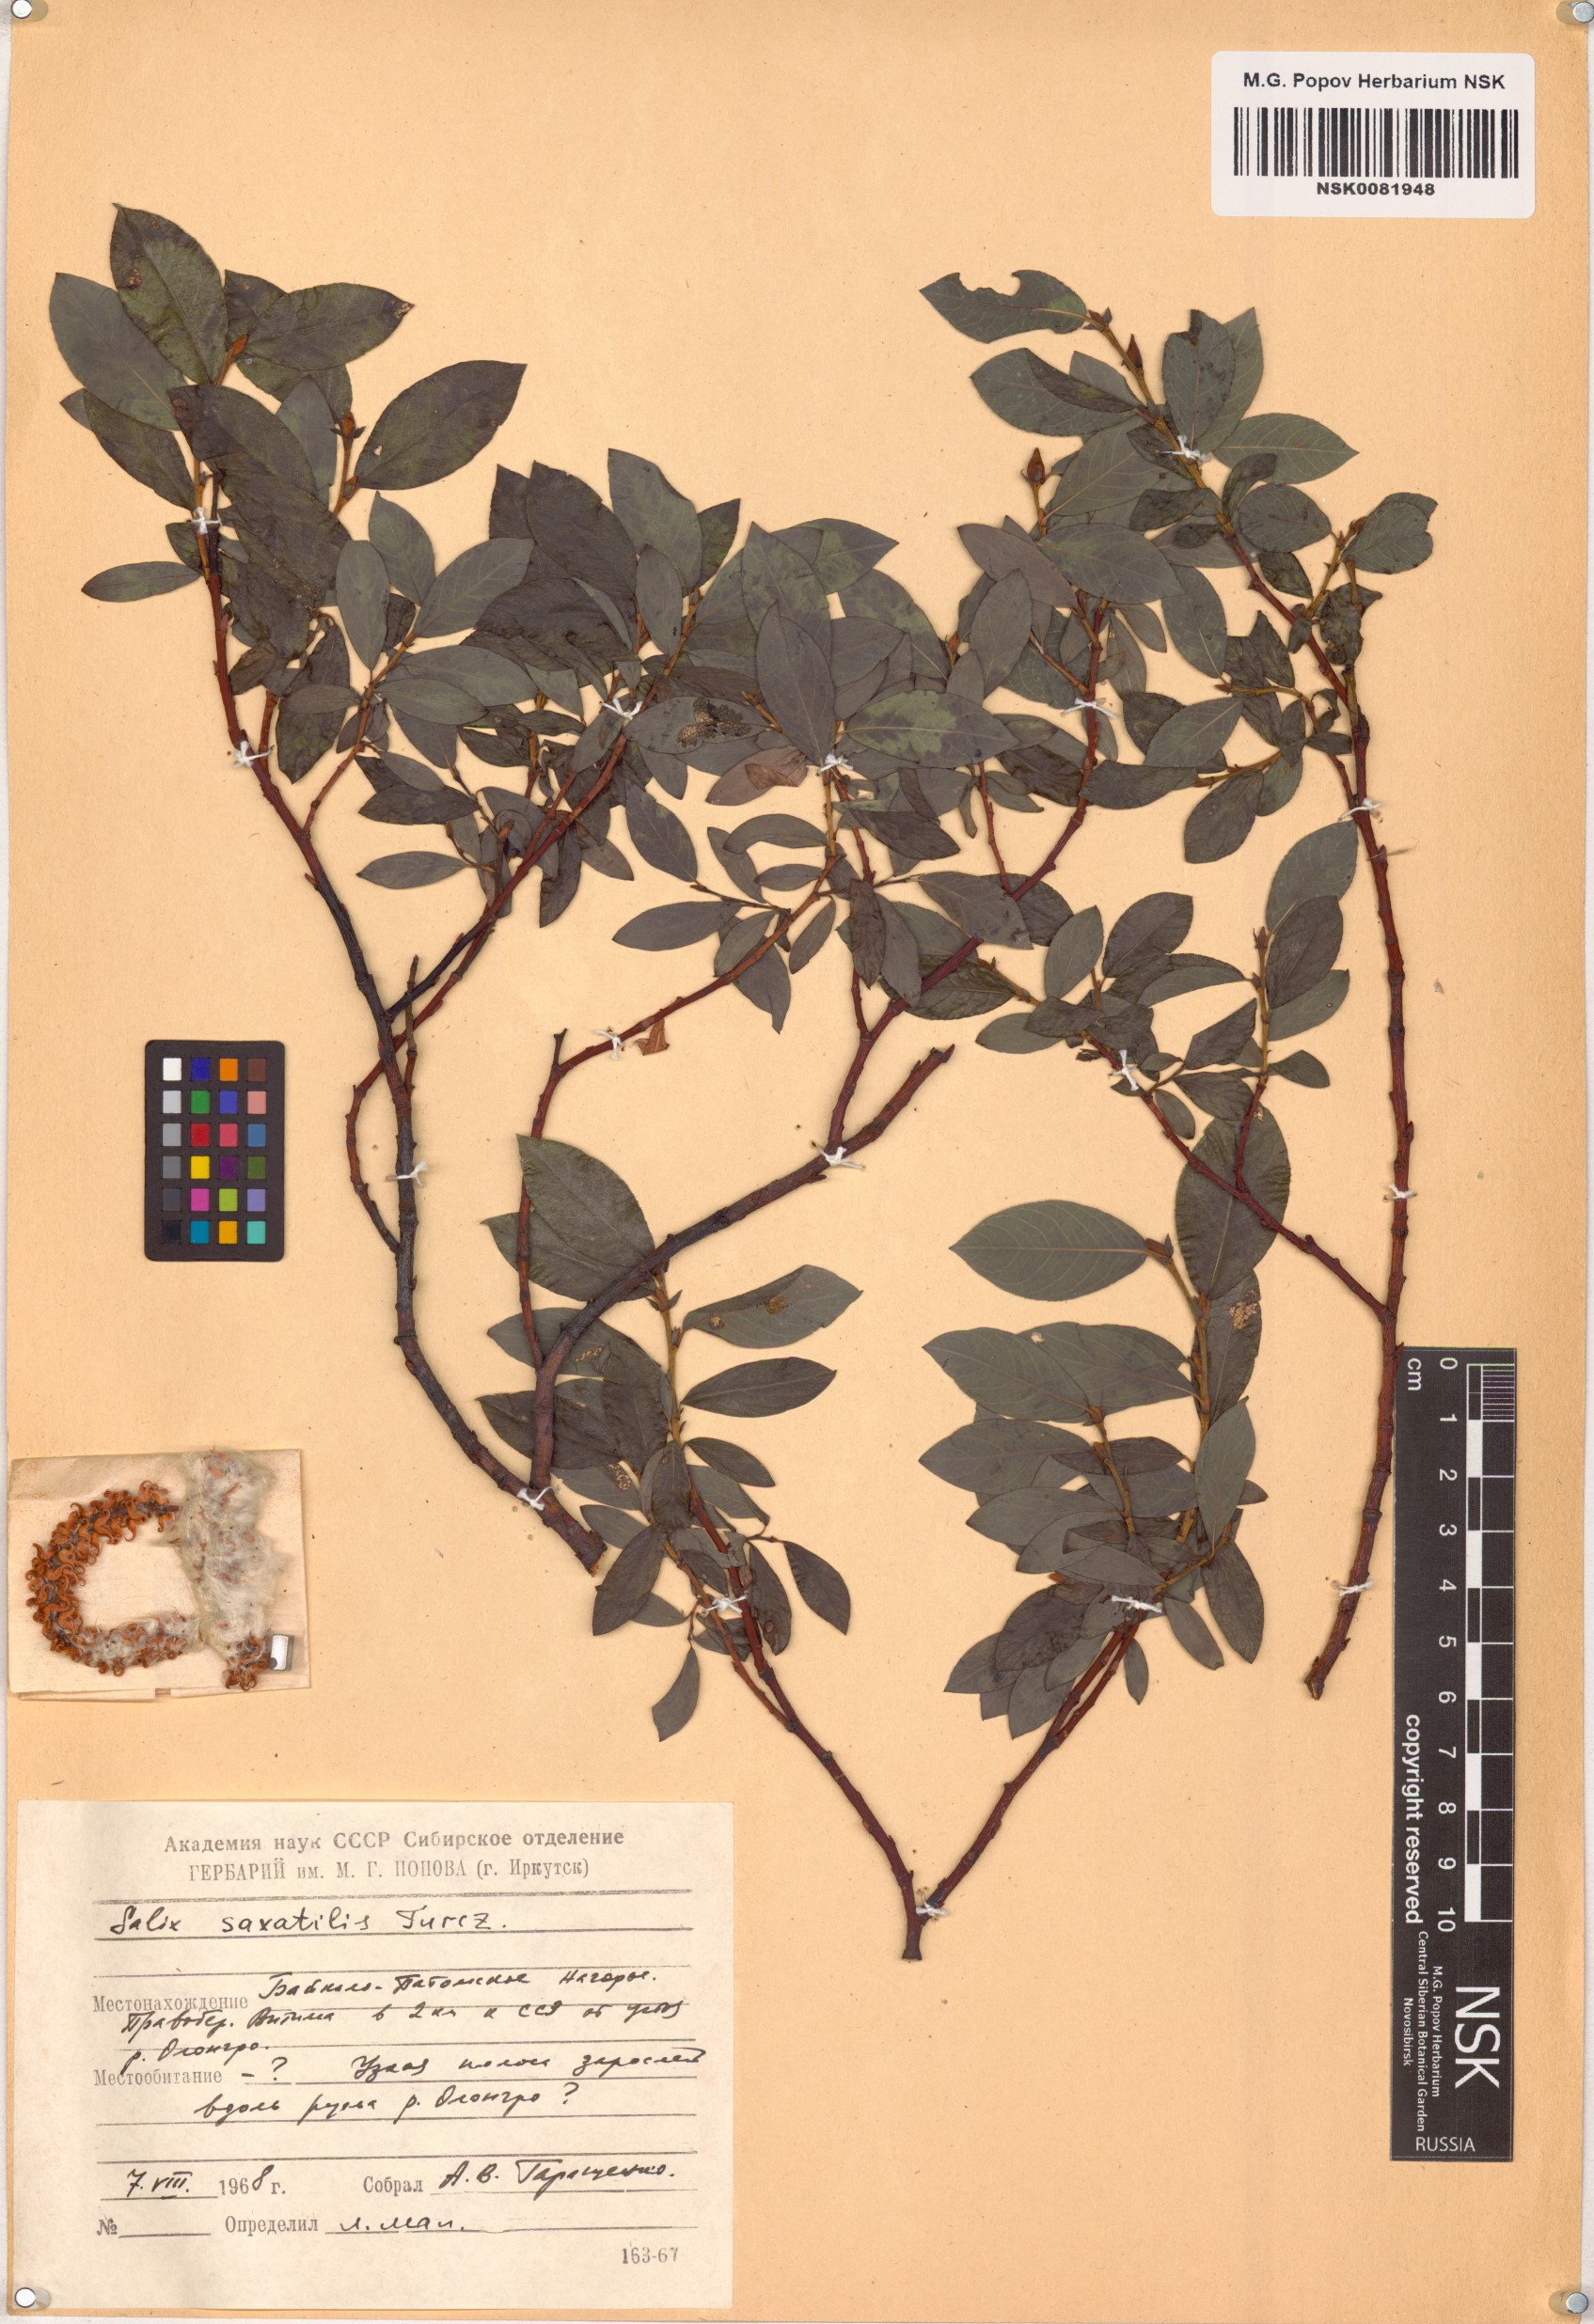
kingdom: Plantae
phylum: Tracheophyta
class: Magnoliopsida
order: Malpighiales
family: Salicaceae
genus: Salix
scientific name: Salix saxatilis
